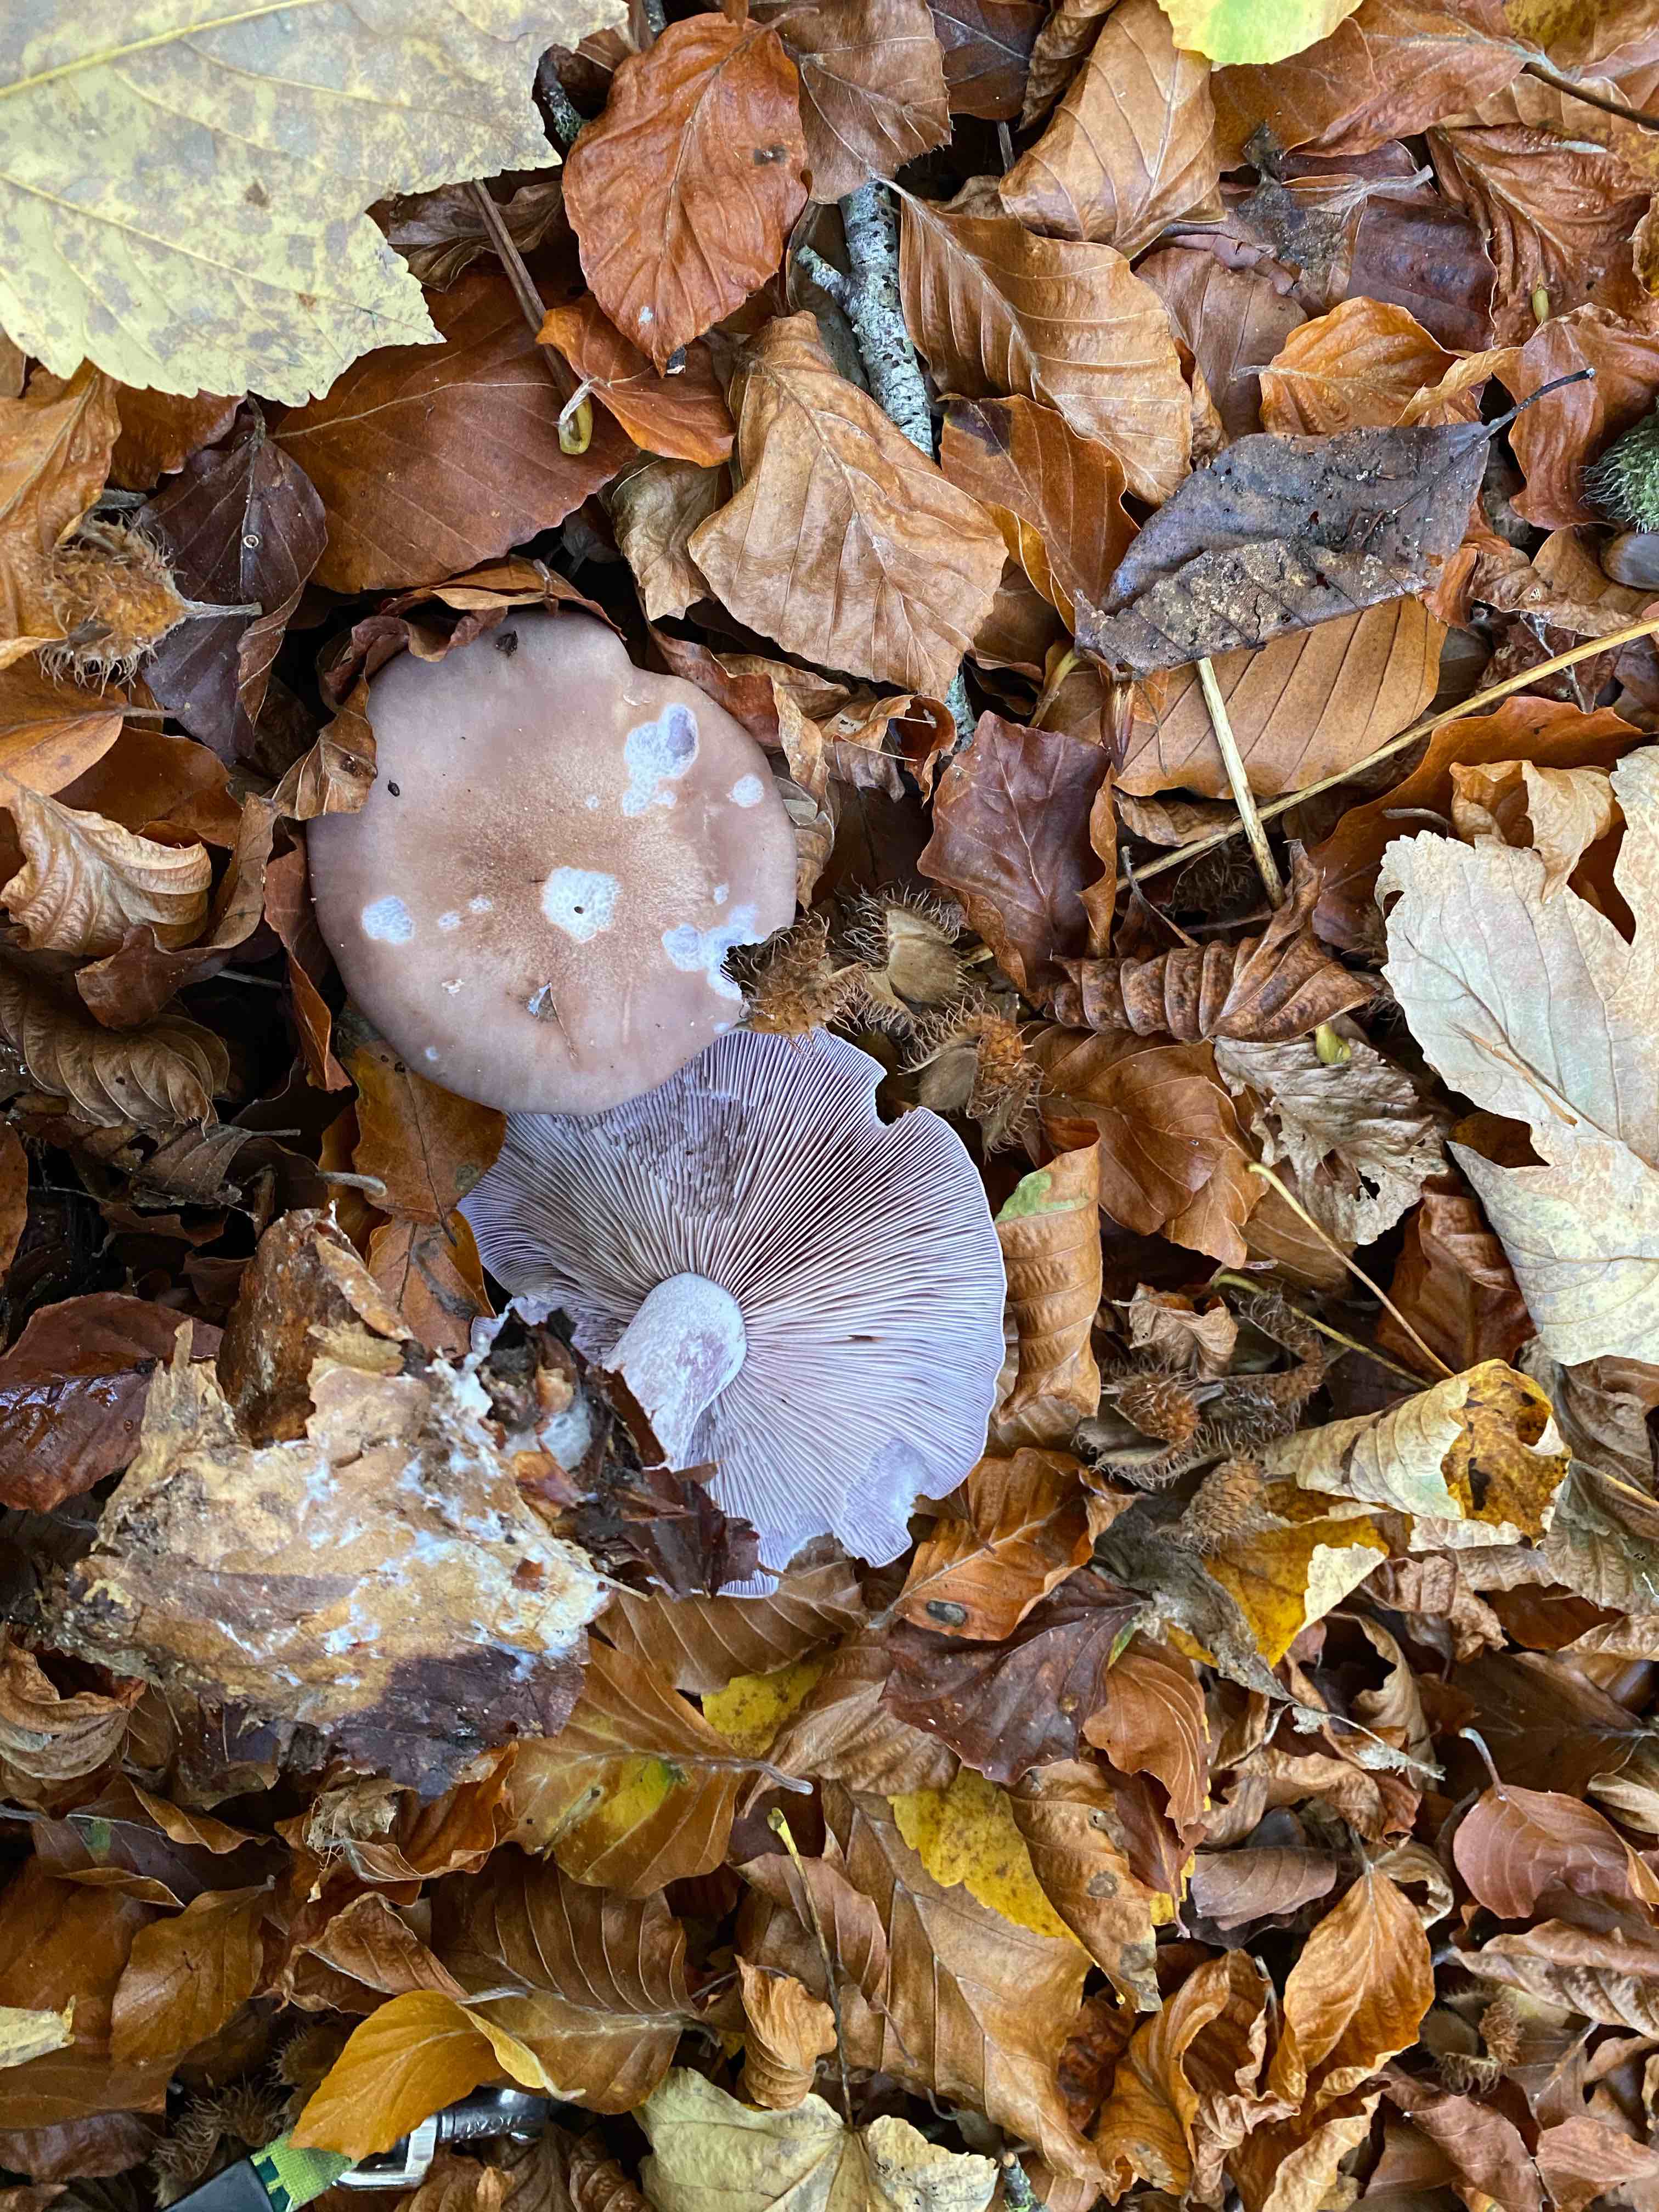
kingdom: Fungi
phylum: Basidiomycota
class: Agaricomycetes
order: Agaricales
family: Tricholomataceae
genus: Lepista
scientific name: Lepista nuda
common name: violet hekseringshat
